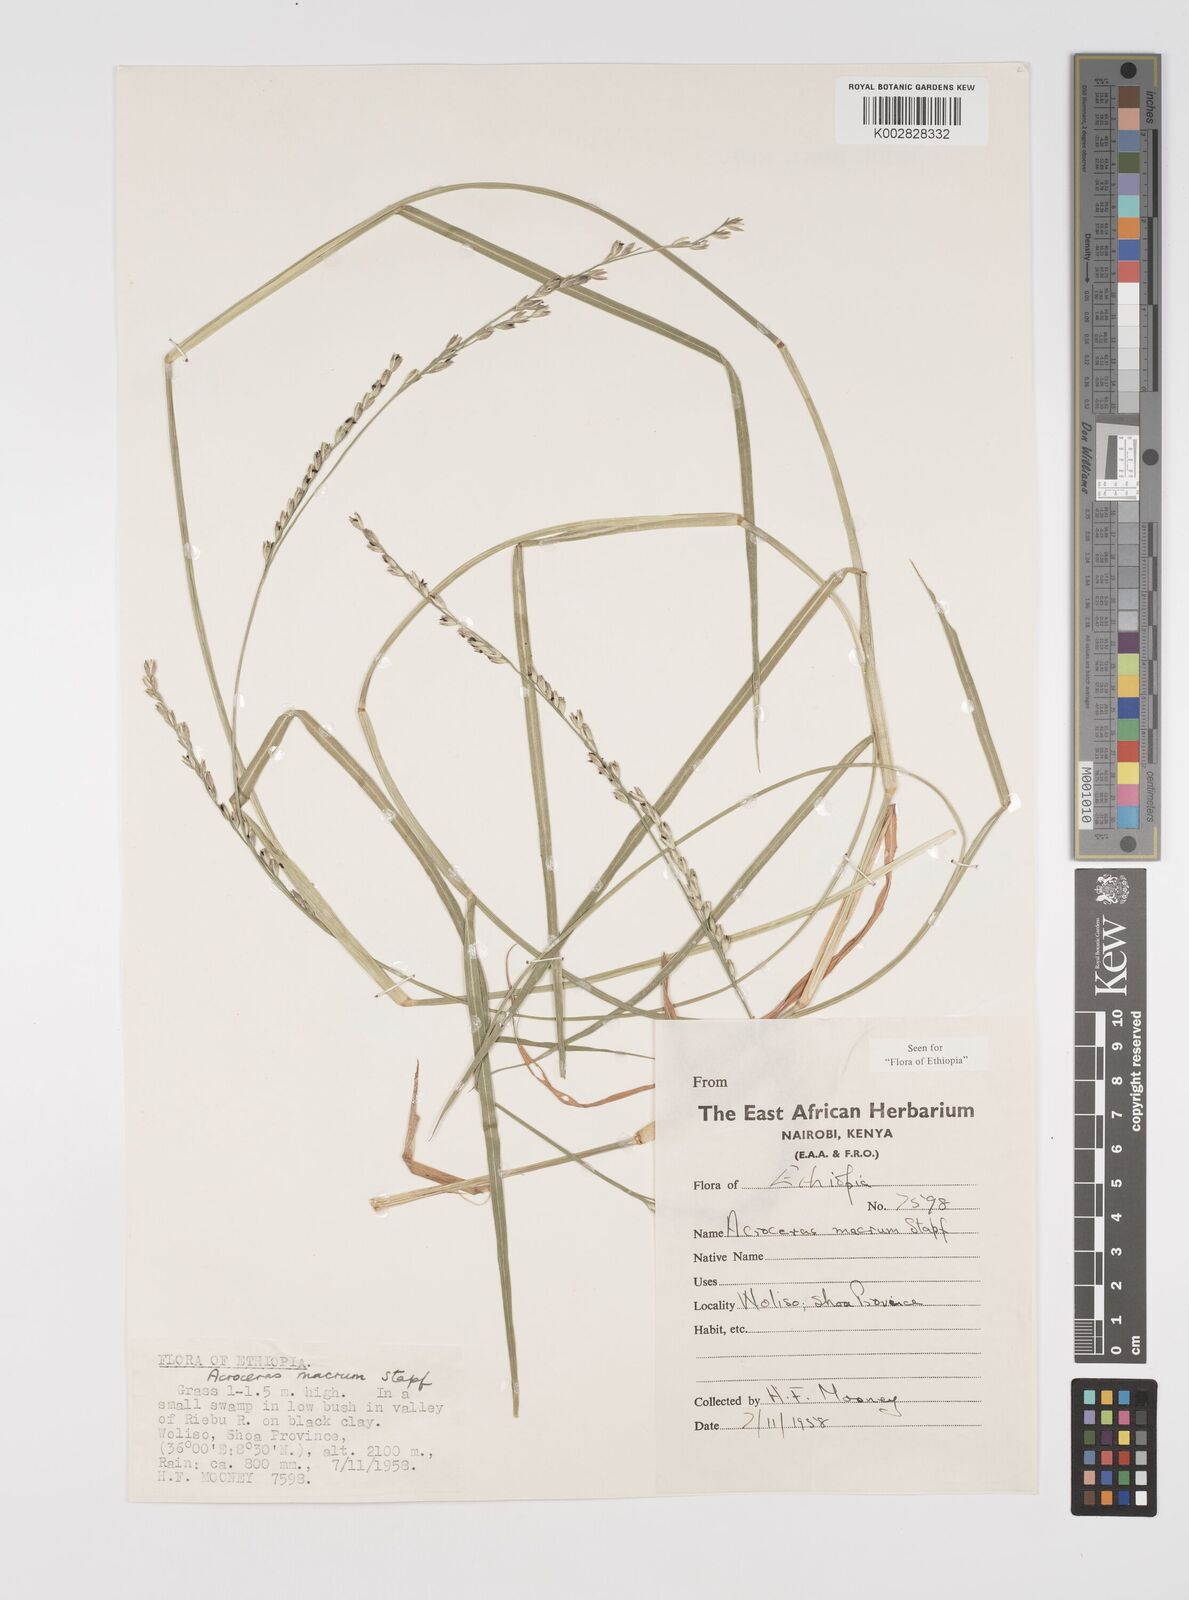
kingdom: Plantae
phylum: Tracheophyta
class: Liliopsida
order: Poales
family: Poaceae
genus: Acroceras
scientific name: Acroceras macrum
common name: Nyl grass
